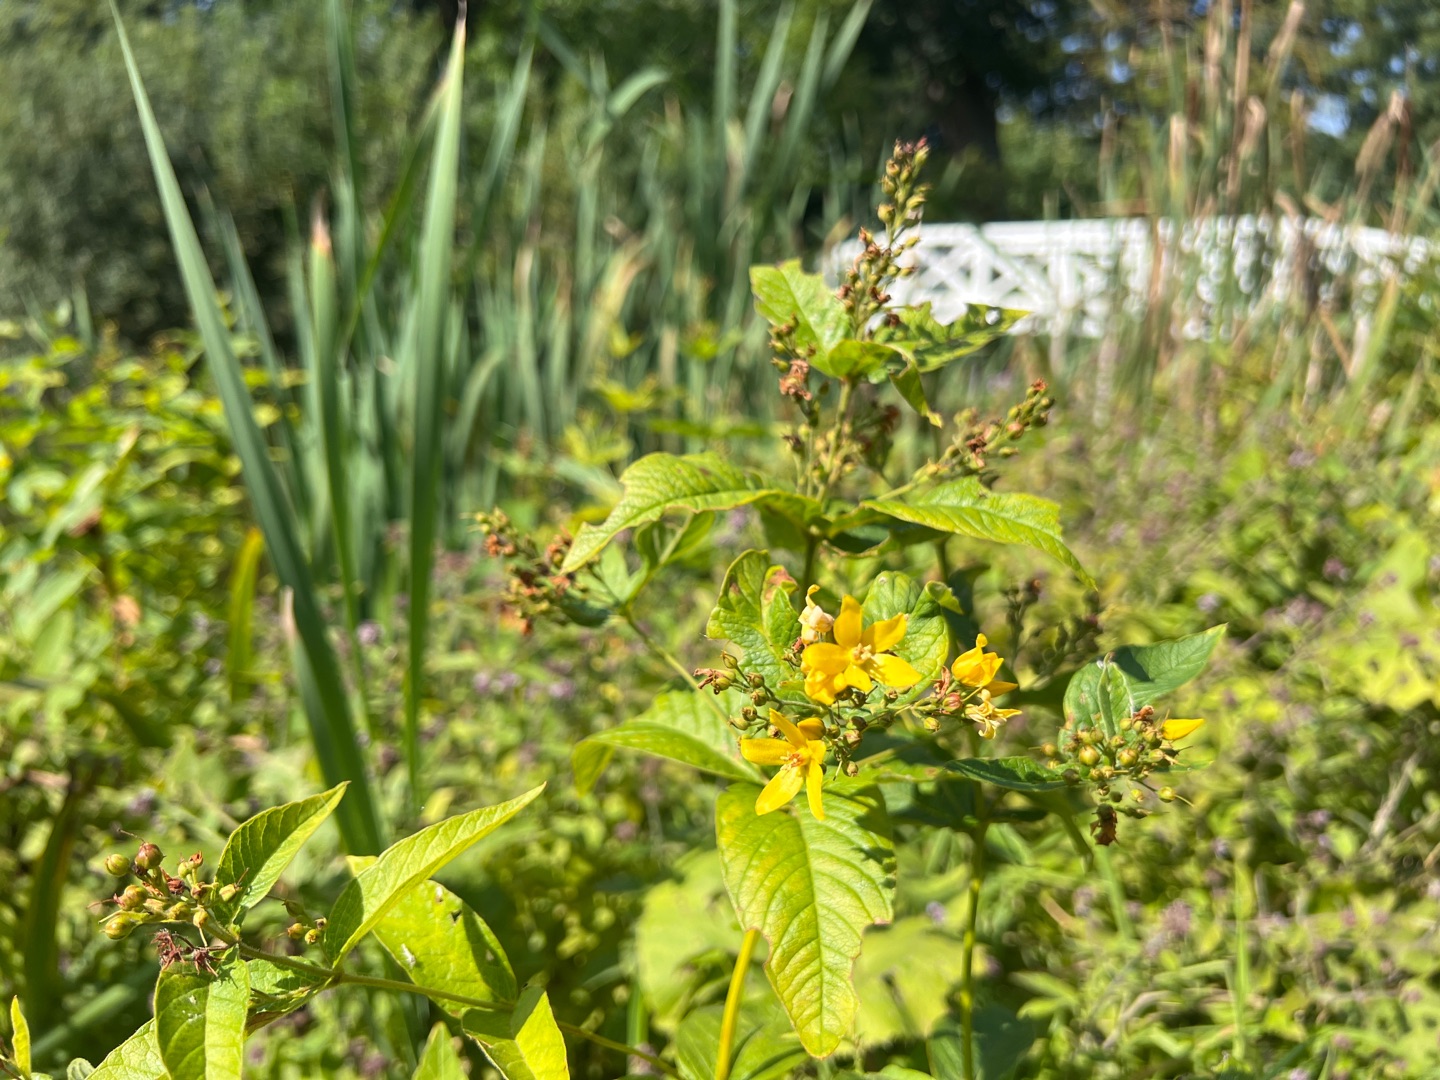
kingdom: Plantae
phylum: Tracheophyta
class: Magnoliopsida
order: Ericales
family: Primulaceae
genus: Lysimachia
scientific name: Lysimachia vulgaris
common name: Almindelig fredløs
